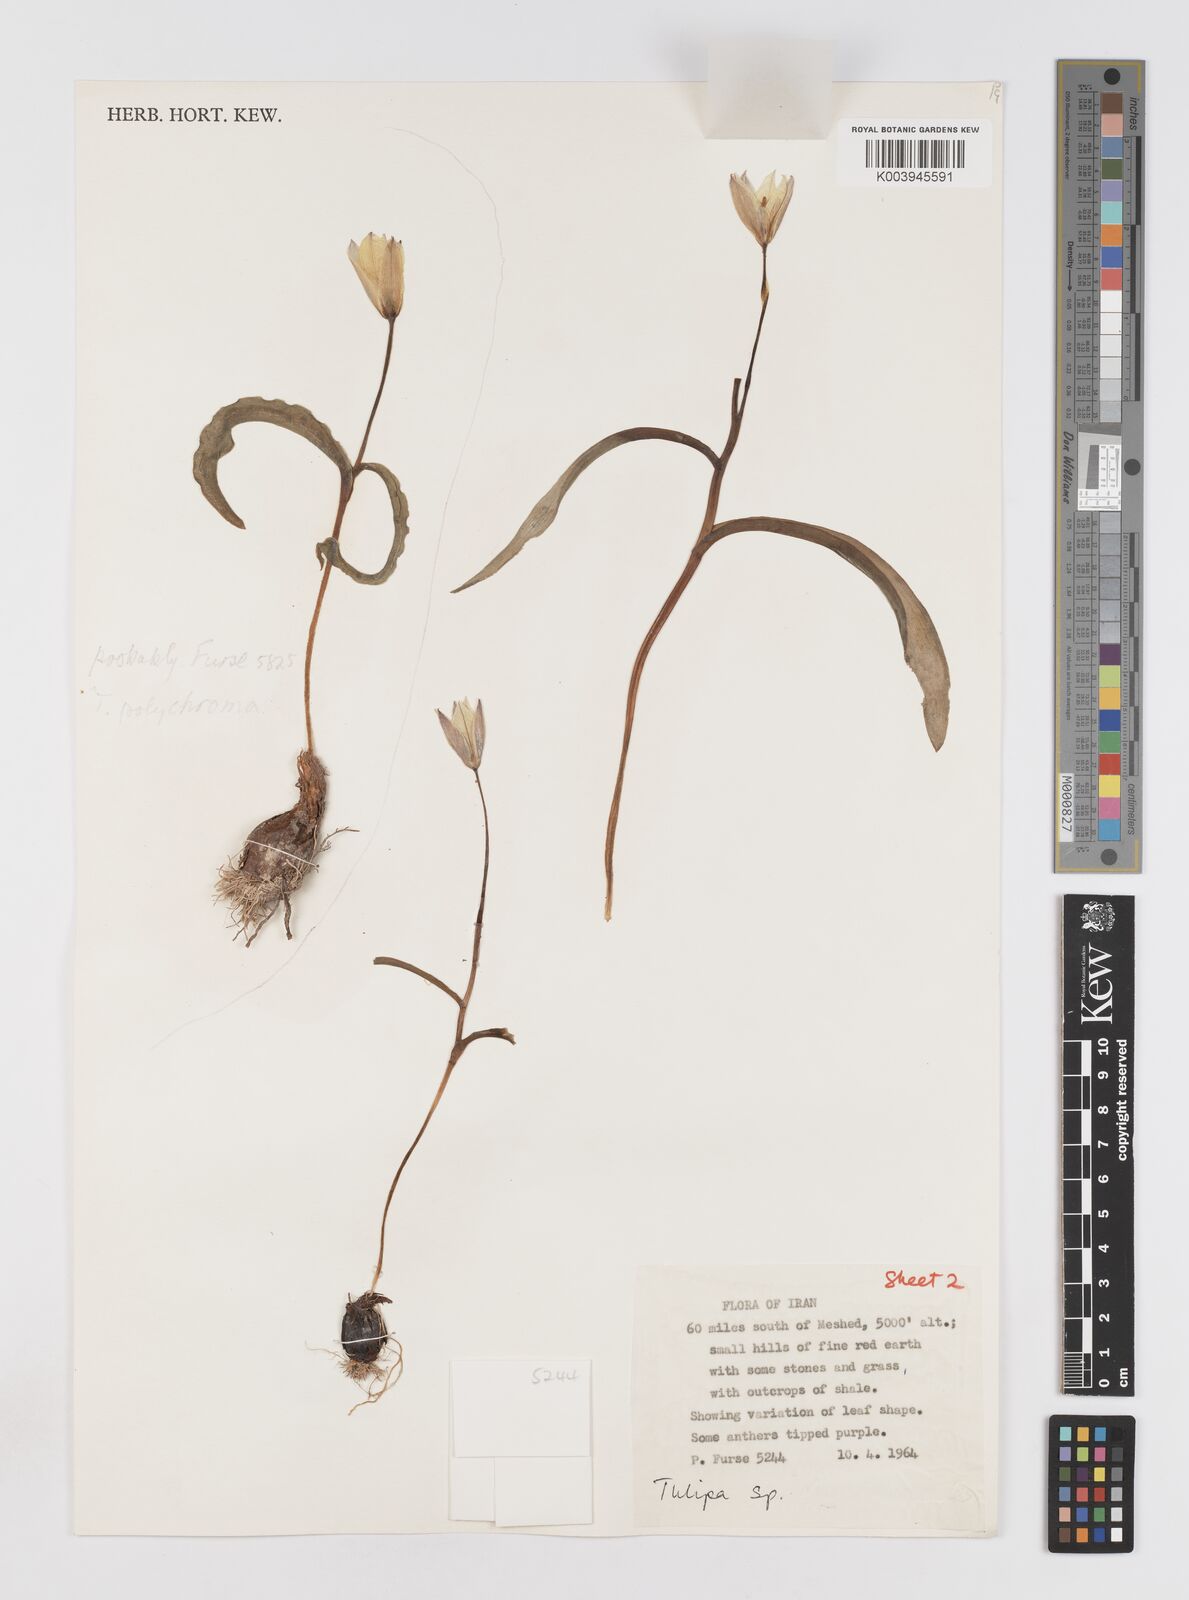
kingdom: Plantae
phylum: Tracheophyta
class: Liliopsida
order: Liliales
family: Liliaceae
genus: Tulipa
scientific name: Tulipa biflora
